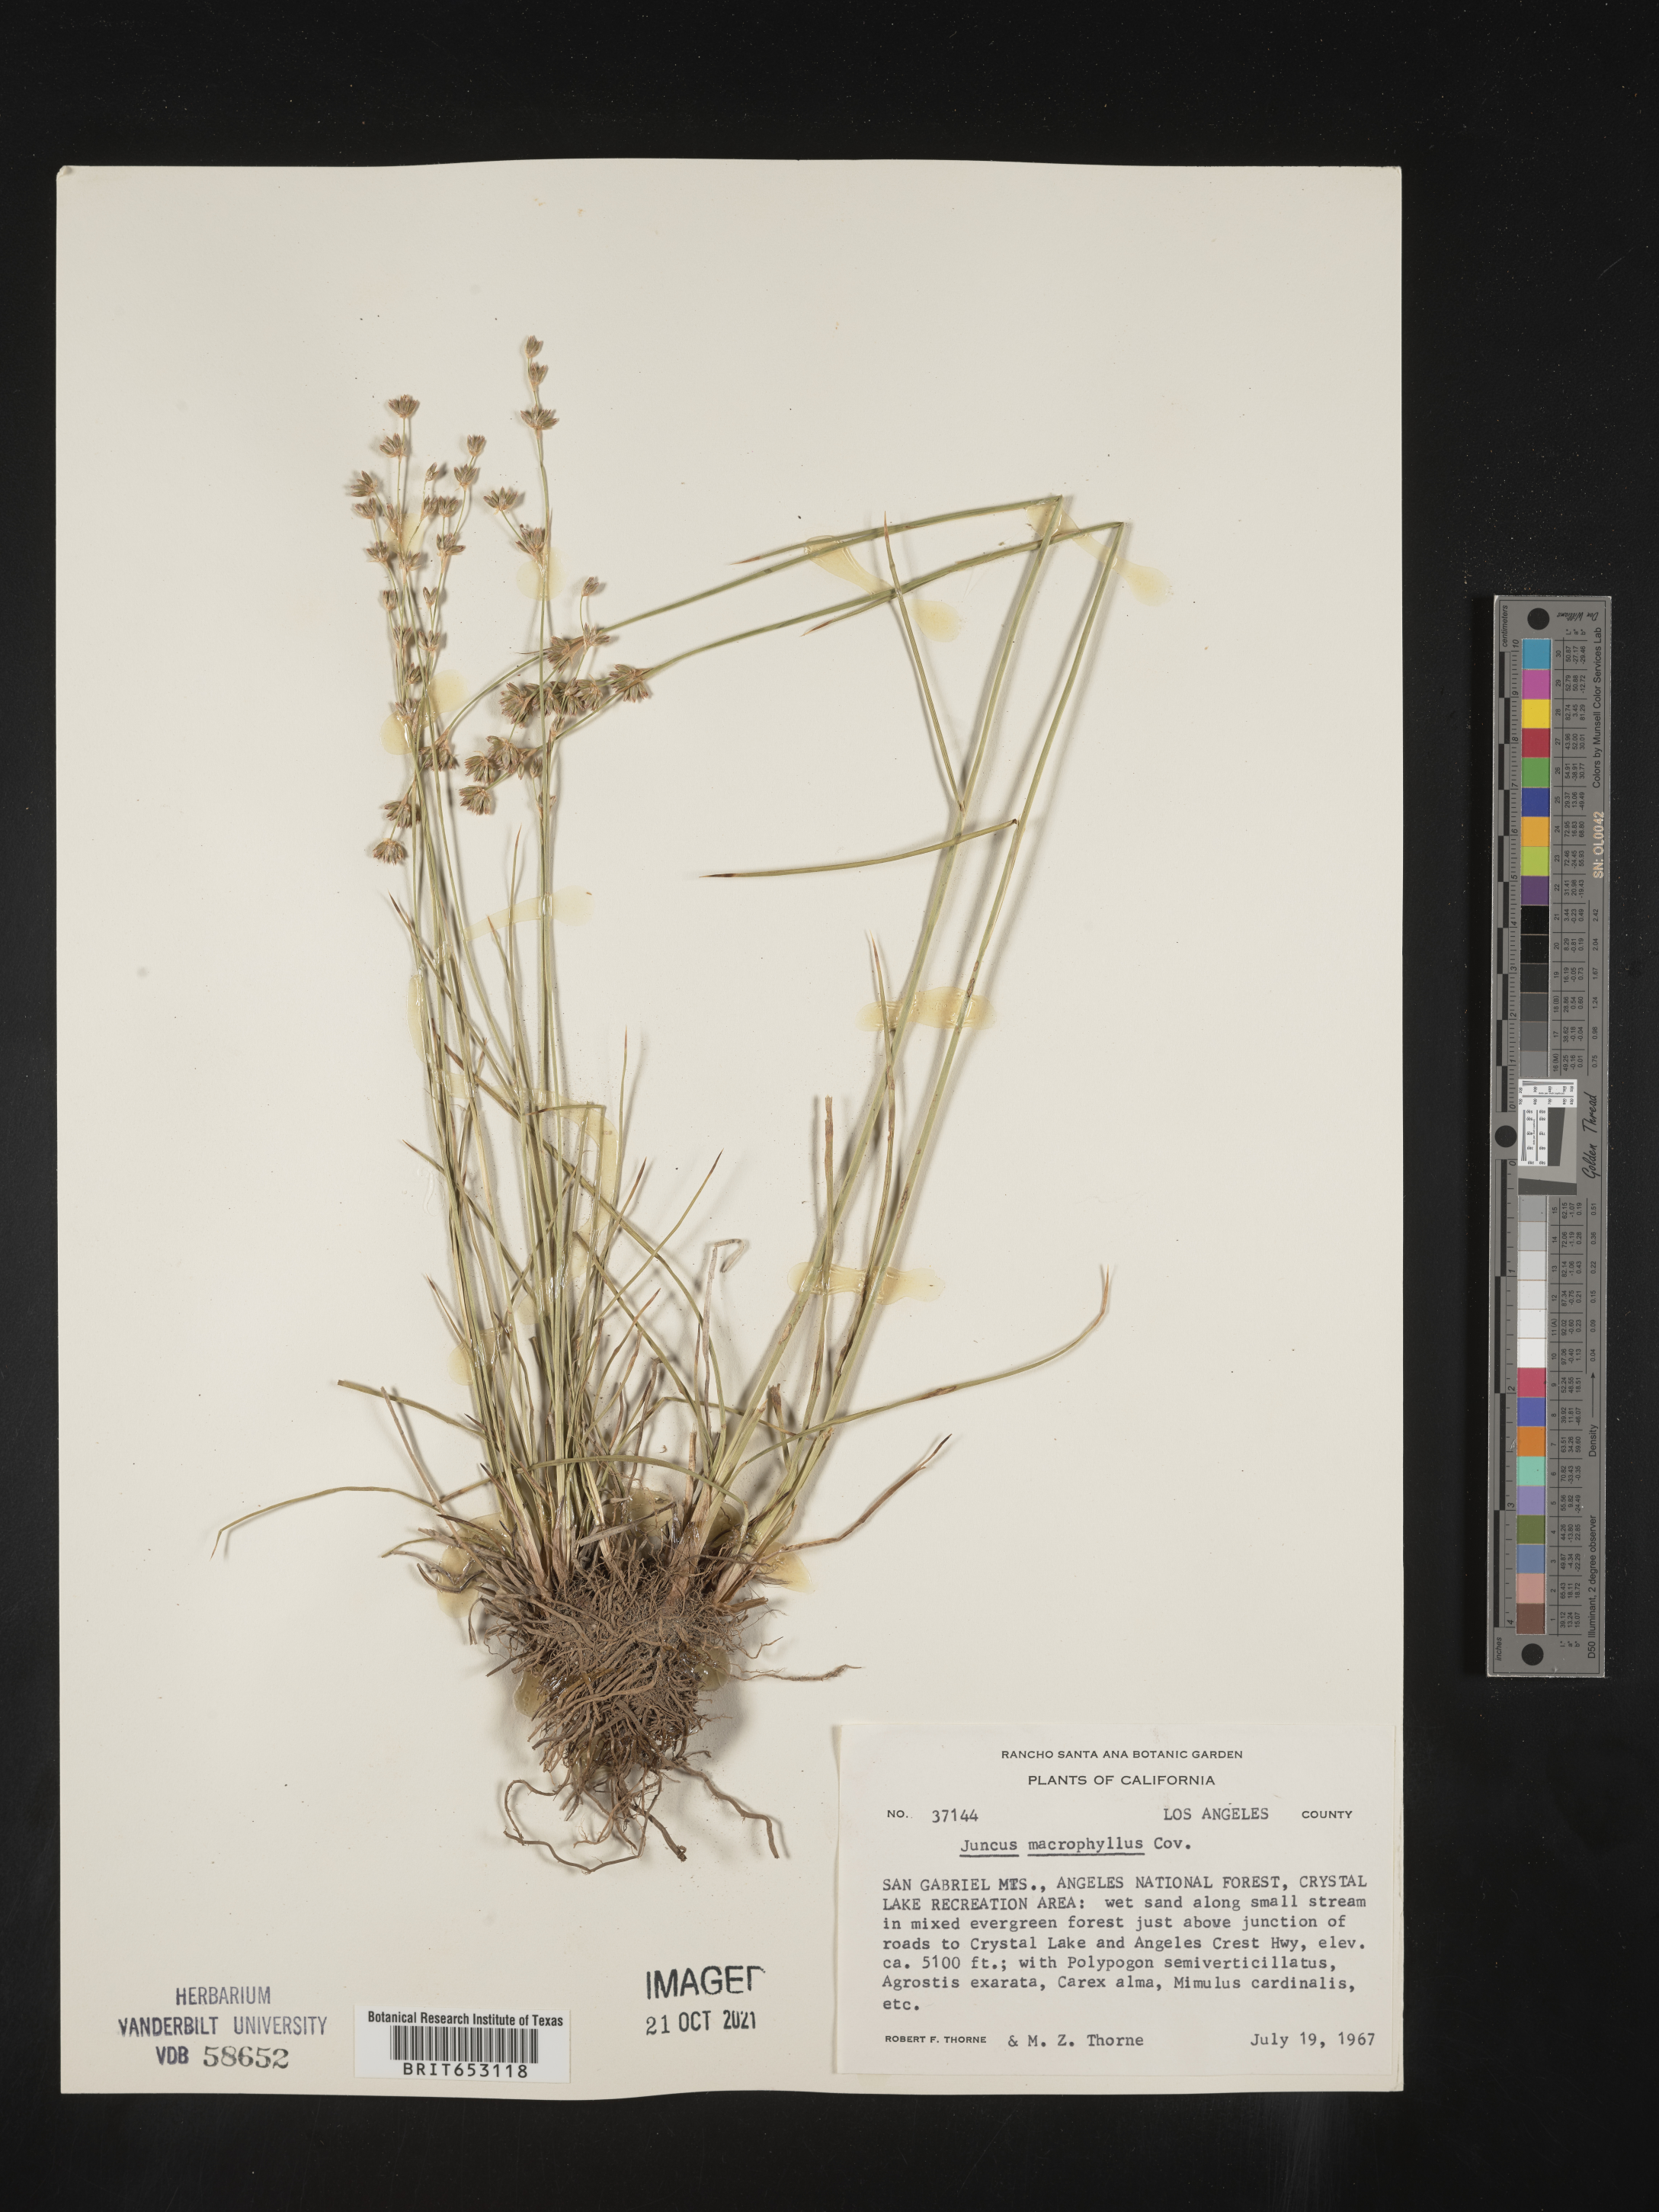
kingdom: Plantae
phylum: Tracheophyta
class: Liliopsida
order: Poales
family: Juncaceae
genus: Juncus
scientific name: Juncus macrophyllus
